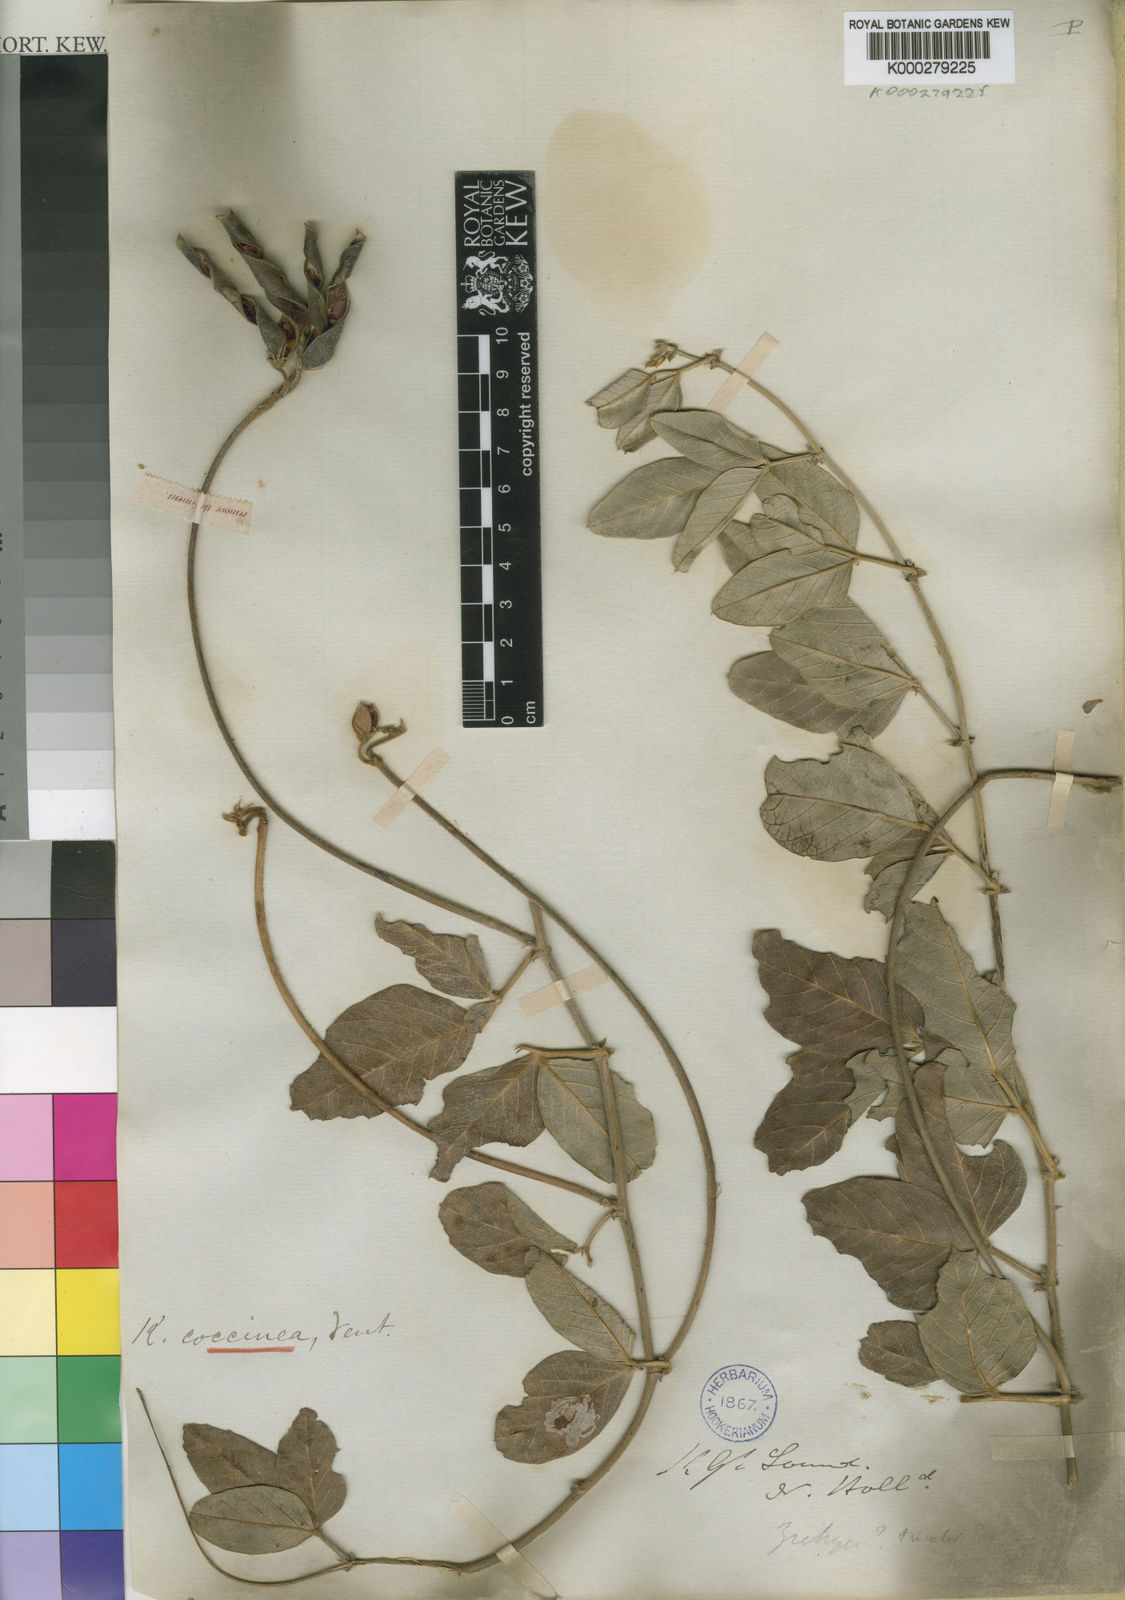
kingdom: Plantae
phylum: Tracheophyta
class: Magnoliopsida
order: Fabales
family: Fabaceae
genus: Kennedia
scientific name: Kennedia coccinea
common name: Coralvine
